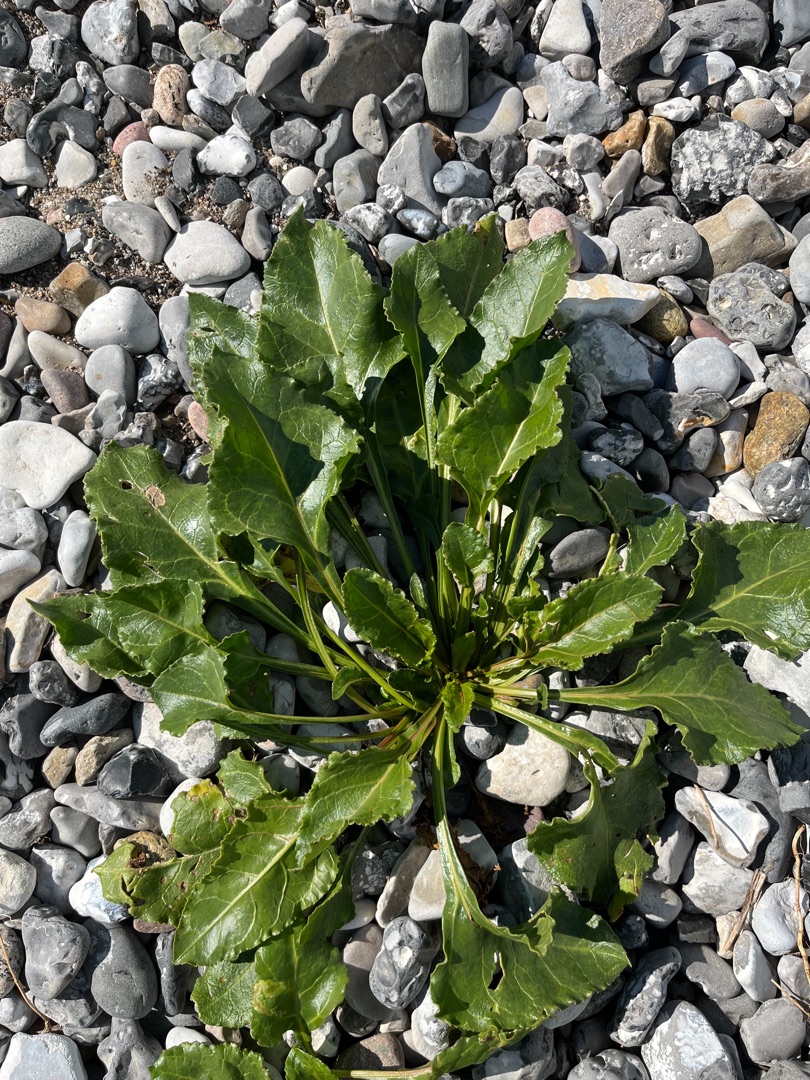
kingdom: Plantae
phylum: Tracheophyta
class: Magnoliopsida
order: Caryophyllales
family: Amaranthaceae
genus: Beta
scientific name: Beta maritima
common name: Strand-bede
